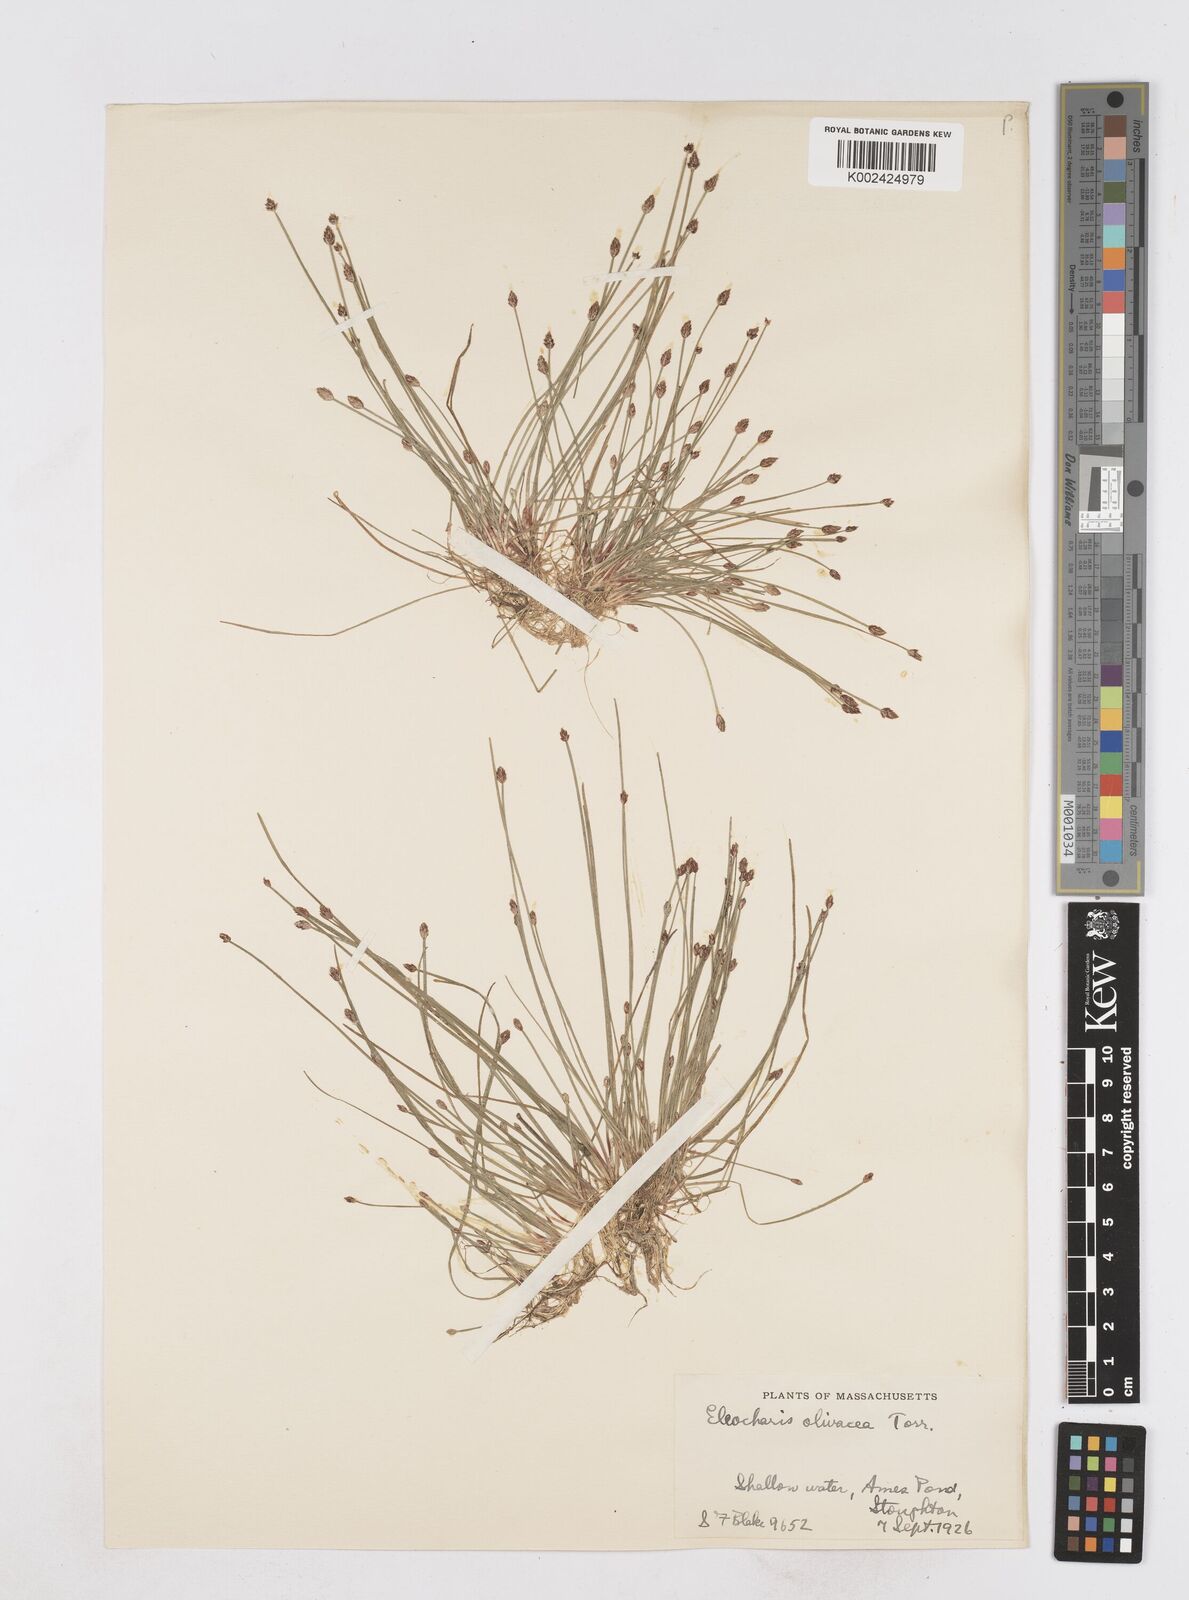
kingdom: Plantae
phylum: Tracheophyta
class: Liliopsida
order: Poales
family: Cyperaceae
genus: Eleocharis
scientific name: Eleocharis flavescens
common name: Yellow spikerush
